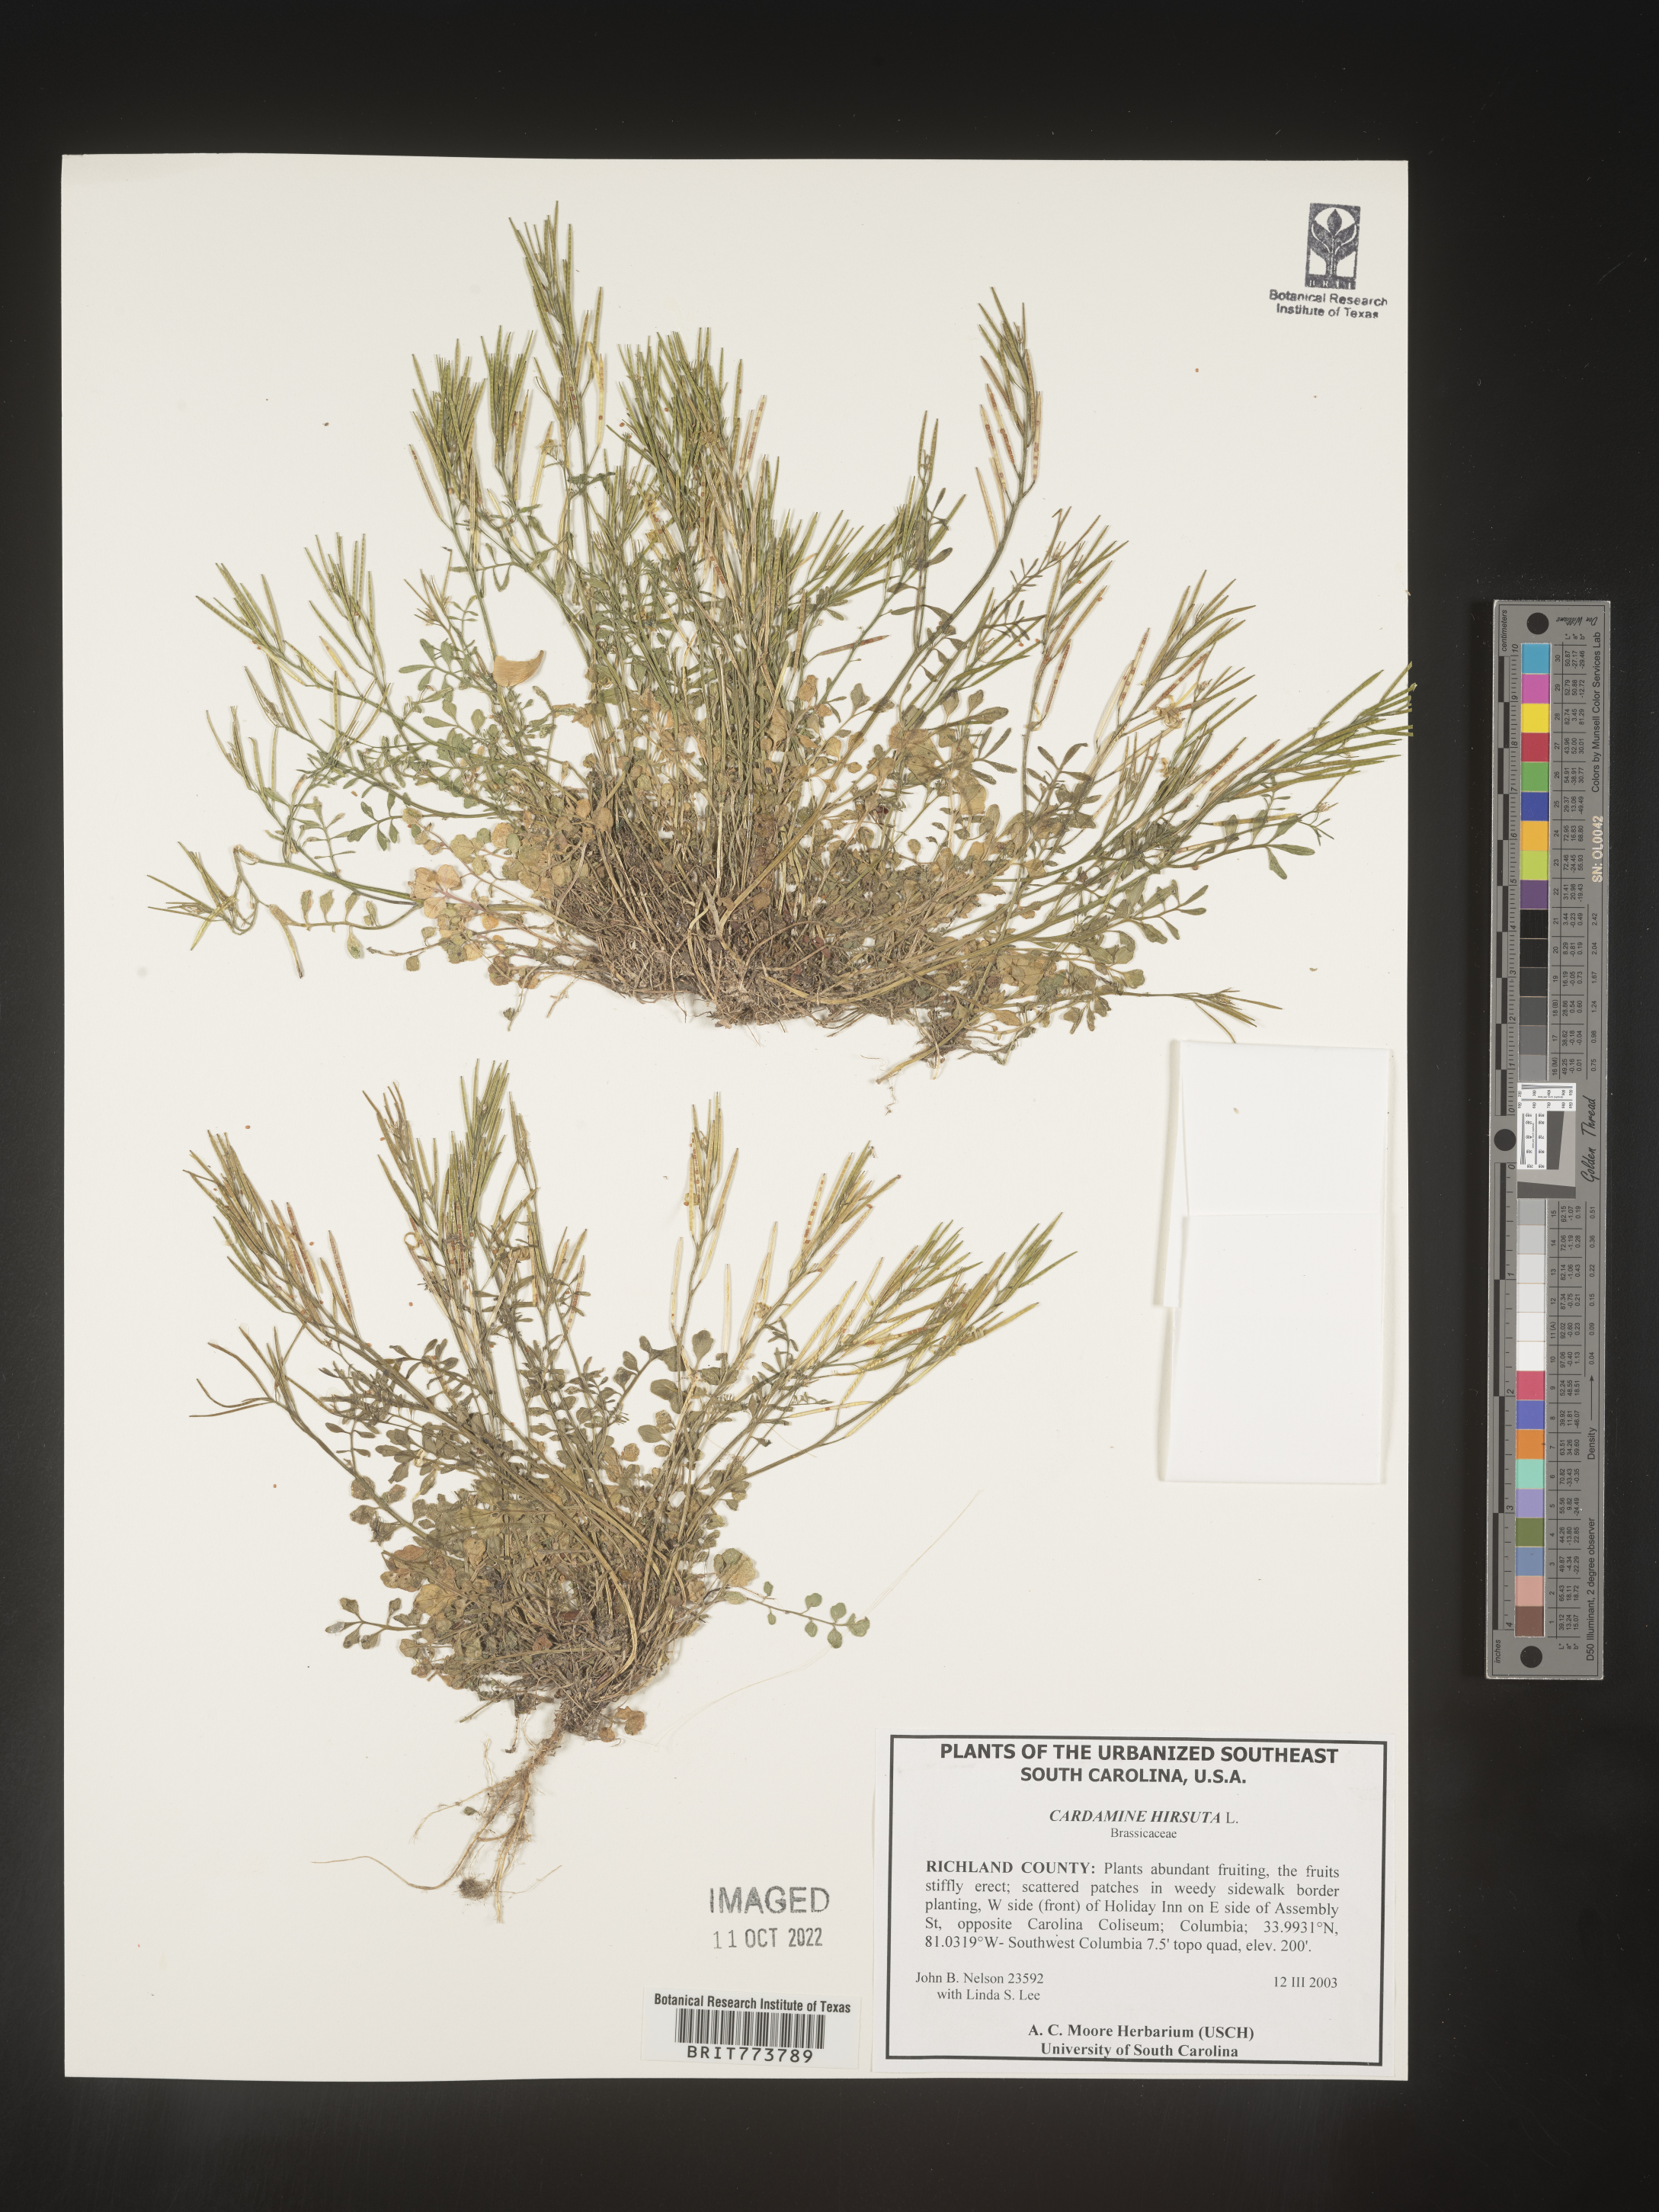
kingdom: Plantae
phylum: Tracheophyta
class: Magnoliopsida
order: Brassicales
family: Brassicaceae
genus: Cardamine
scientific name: Cardamine hirsuta
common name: Hairy bittercress
